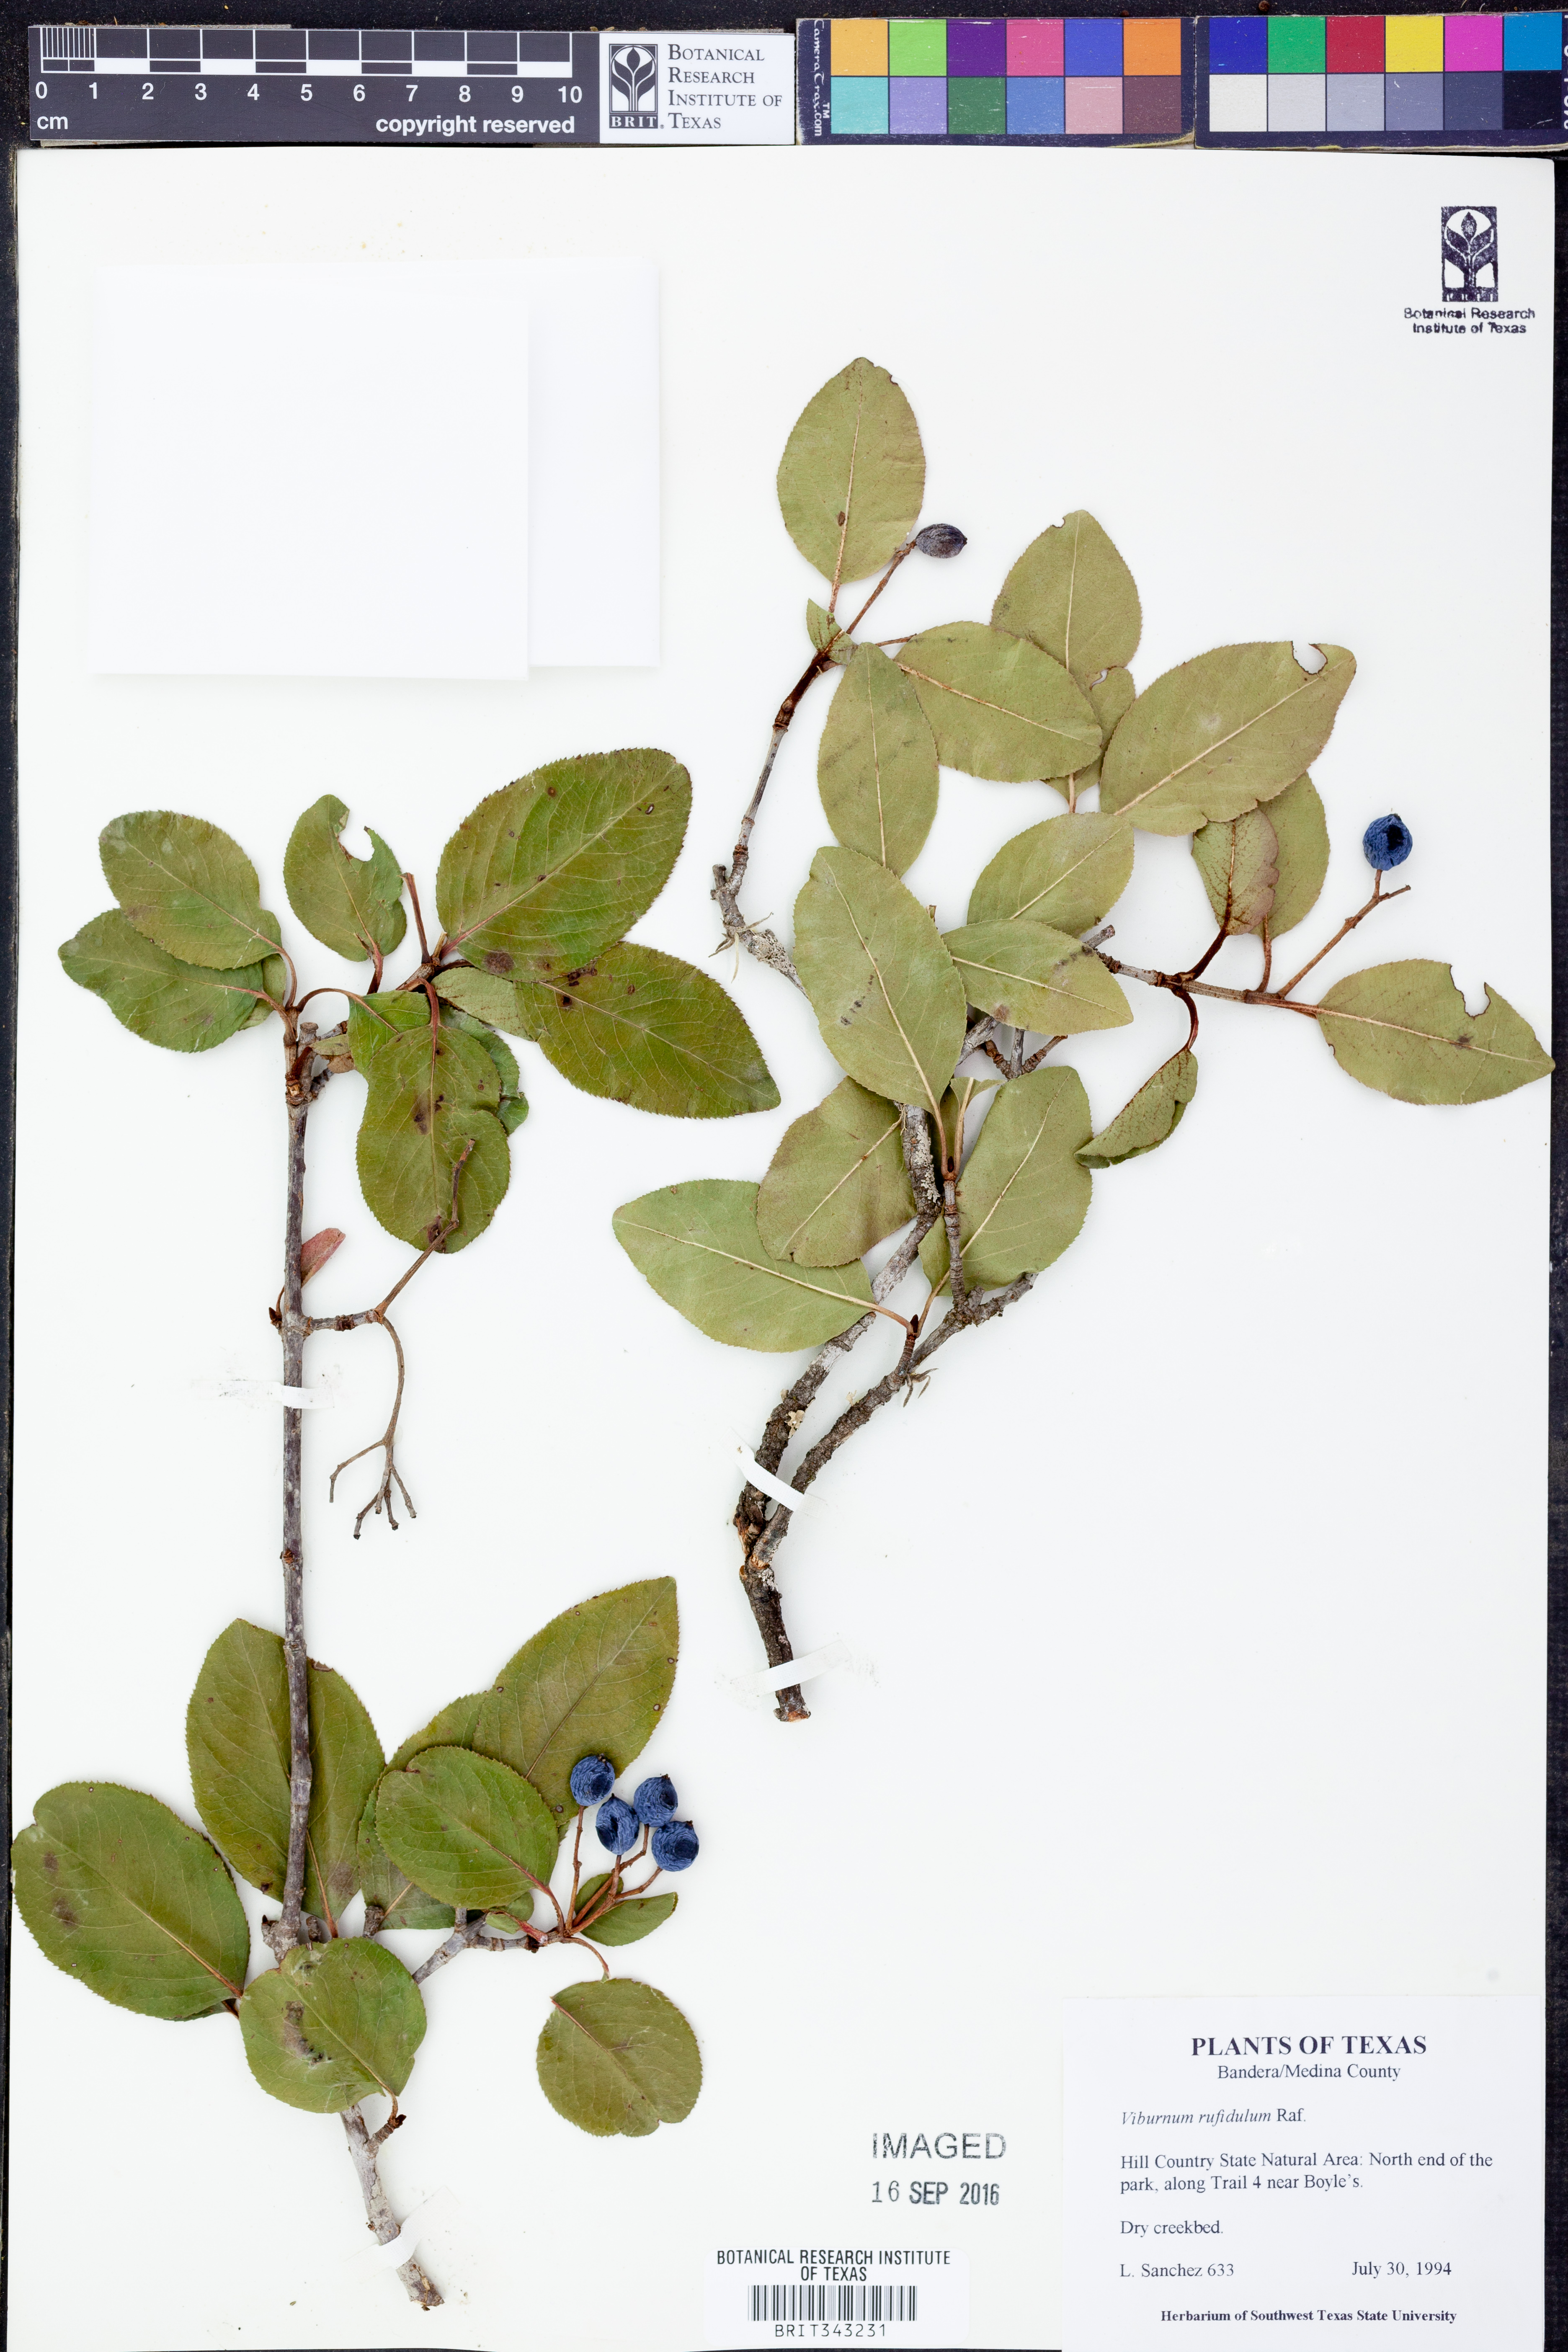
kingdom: Plantae
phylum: Tracheophyta
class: Magnoliopsida
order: Dipsacales
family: Viburnaceae
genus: Viburnum
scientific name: Viburnum rufidulum
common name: Blue haw
